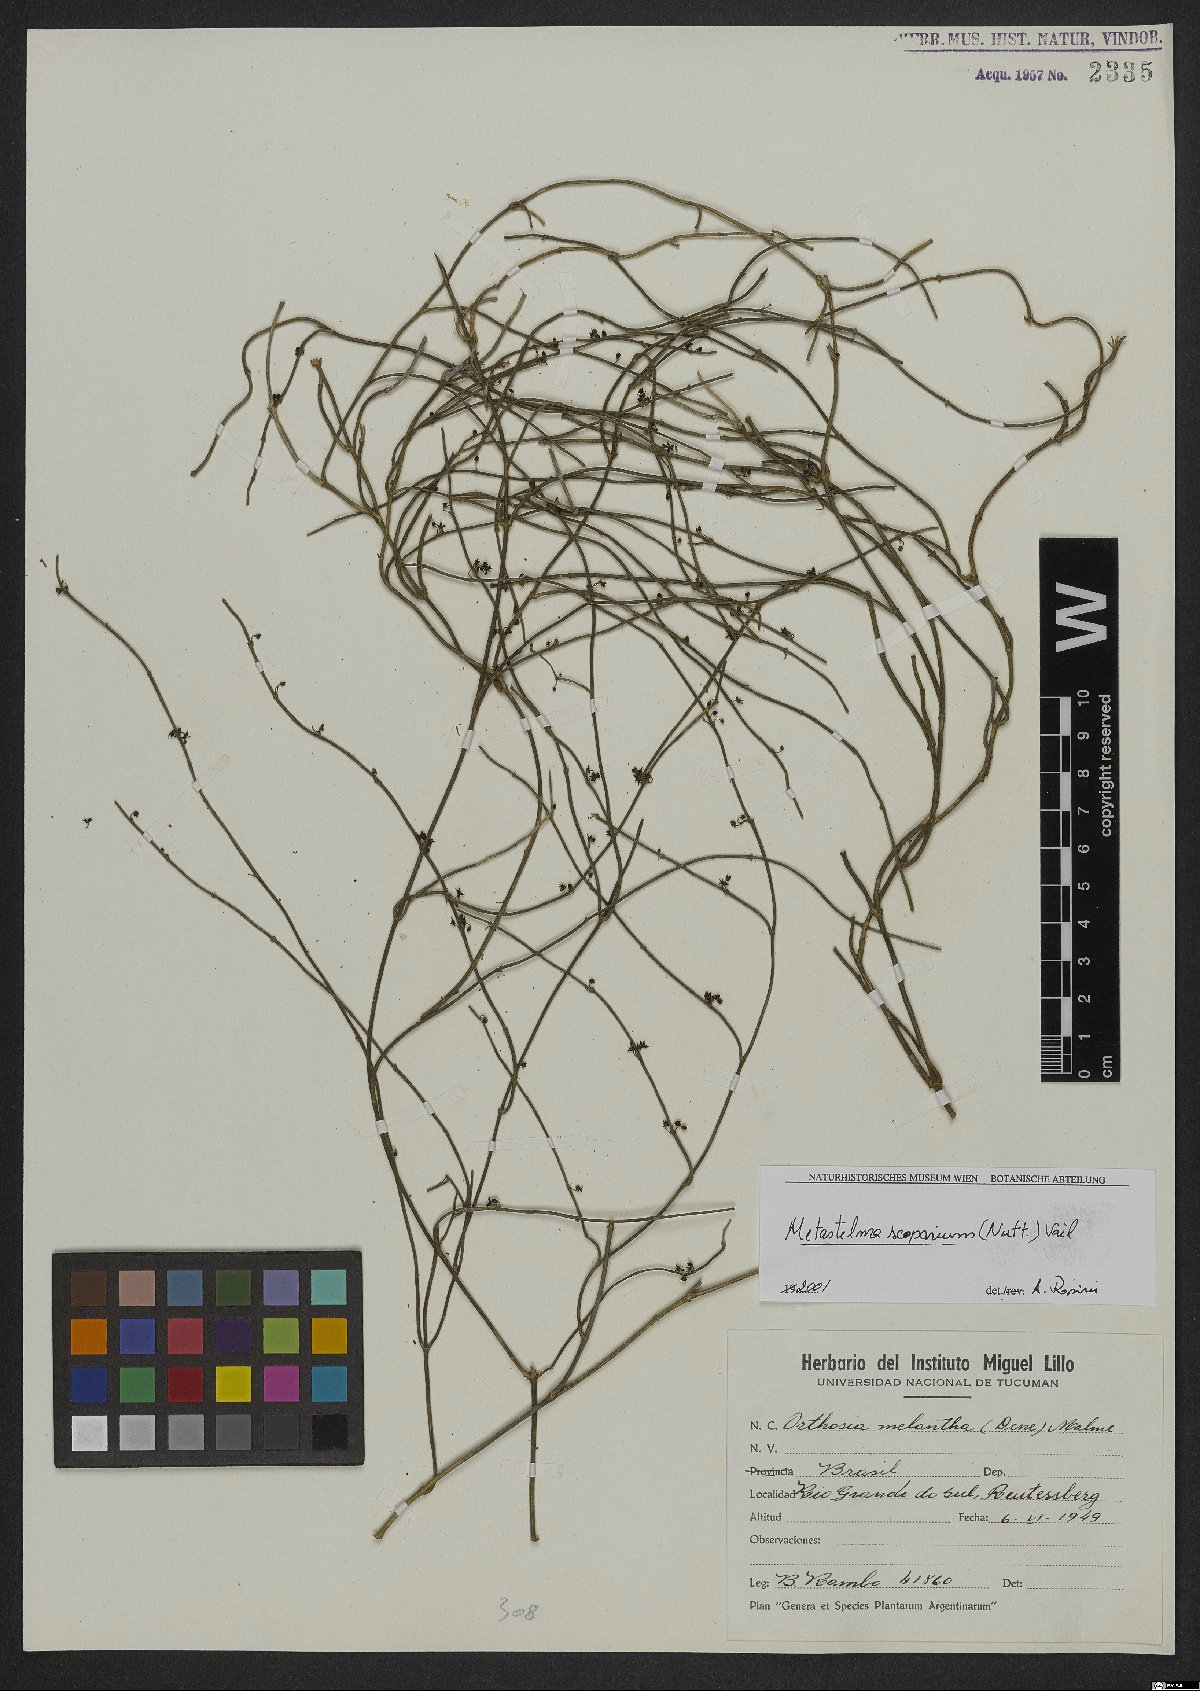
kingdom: Plantae
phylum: Tracheophyta
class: Magnoliopsida
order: Gentianales
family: Apocynaceae
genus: Orthosia
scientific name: Orthosia scoparia
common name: Leafless swallow-wort
